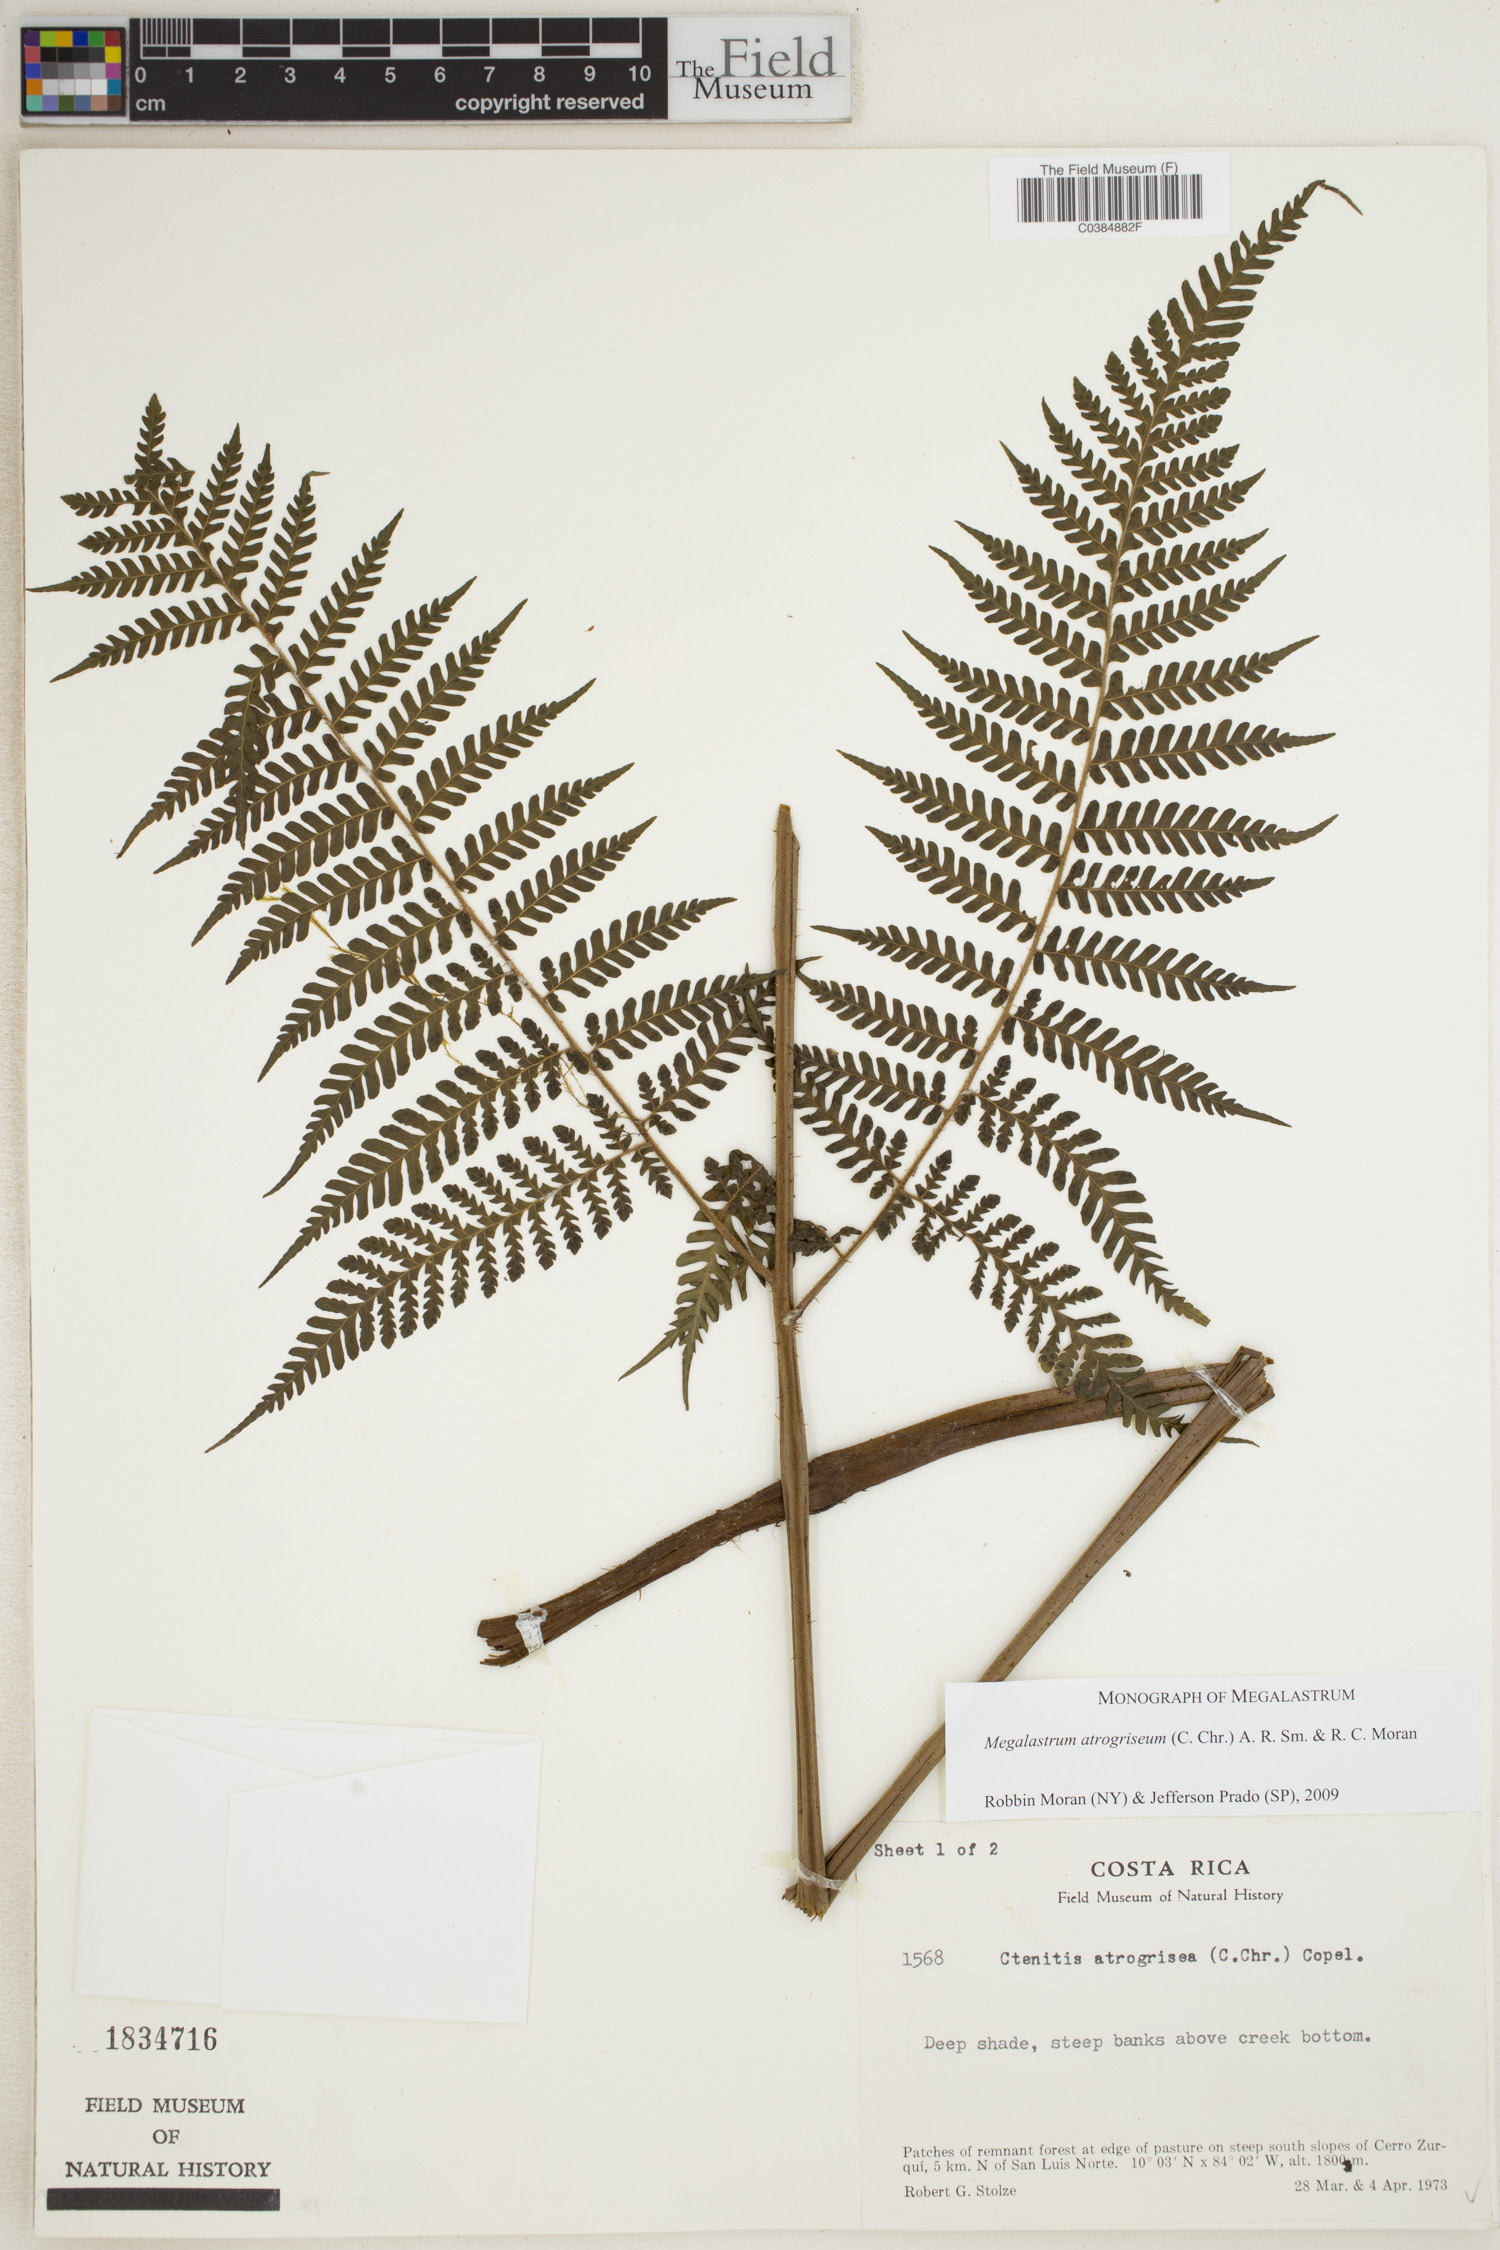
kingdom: Plantae
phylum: Tracheophyta
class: Polypodiopsida
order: Polypodiales
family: Dryopteridaceae
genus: Megalastrum
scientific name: Megalastrum atrogriseum
